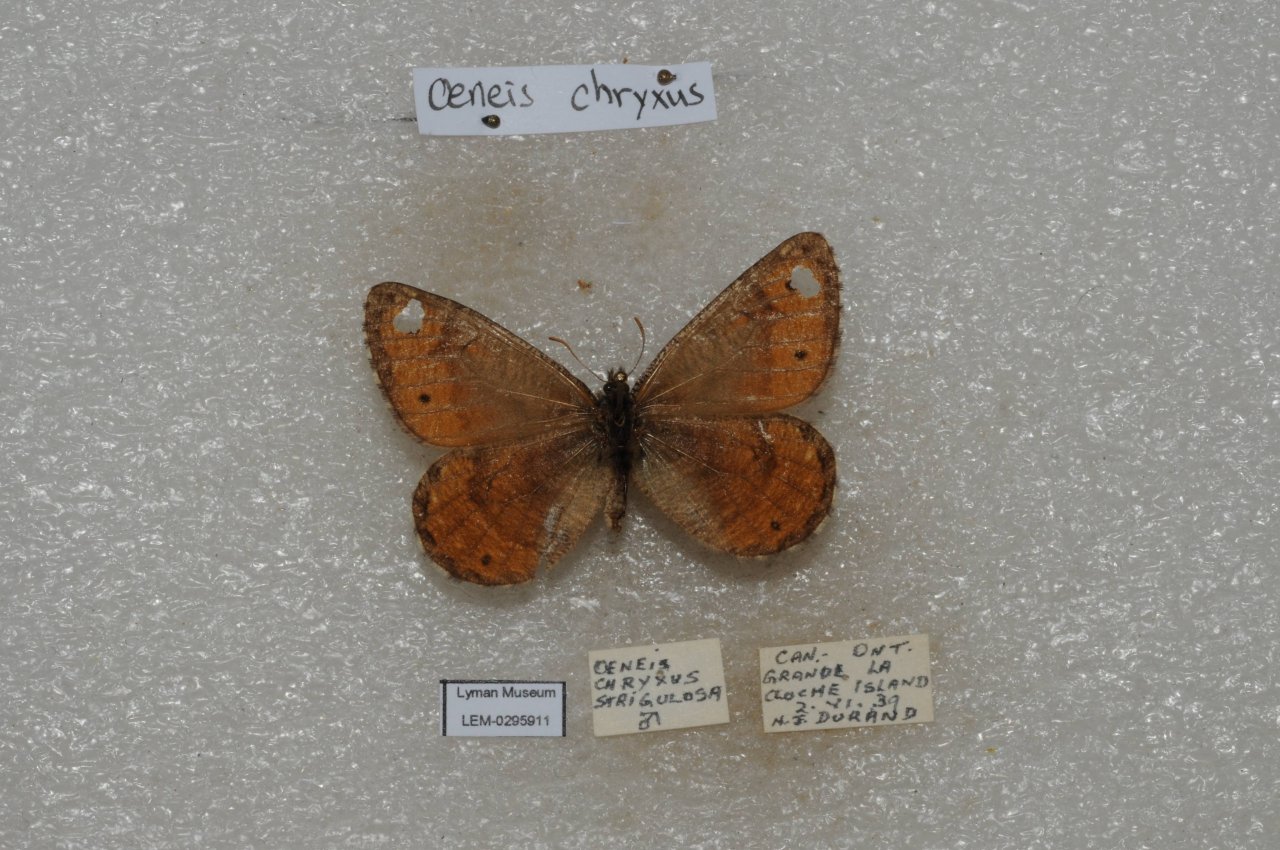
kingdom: Animalia
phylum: Arthropoda
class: Insecta
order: Lepidoptera
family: Nymphalidae
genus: Oeneis
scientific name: Oeneis chryxus
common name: Chryxus Arctic
